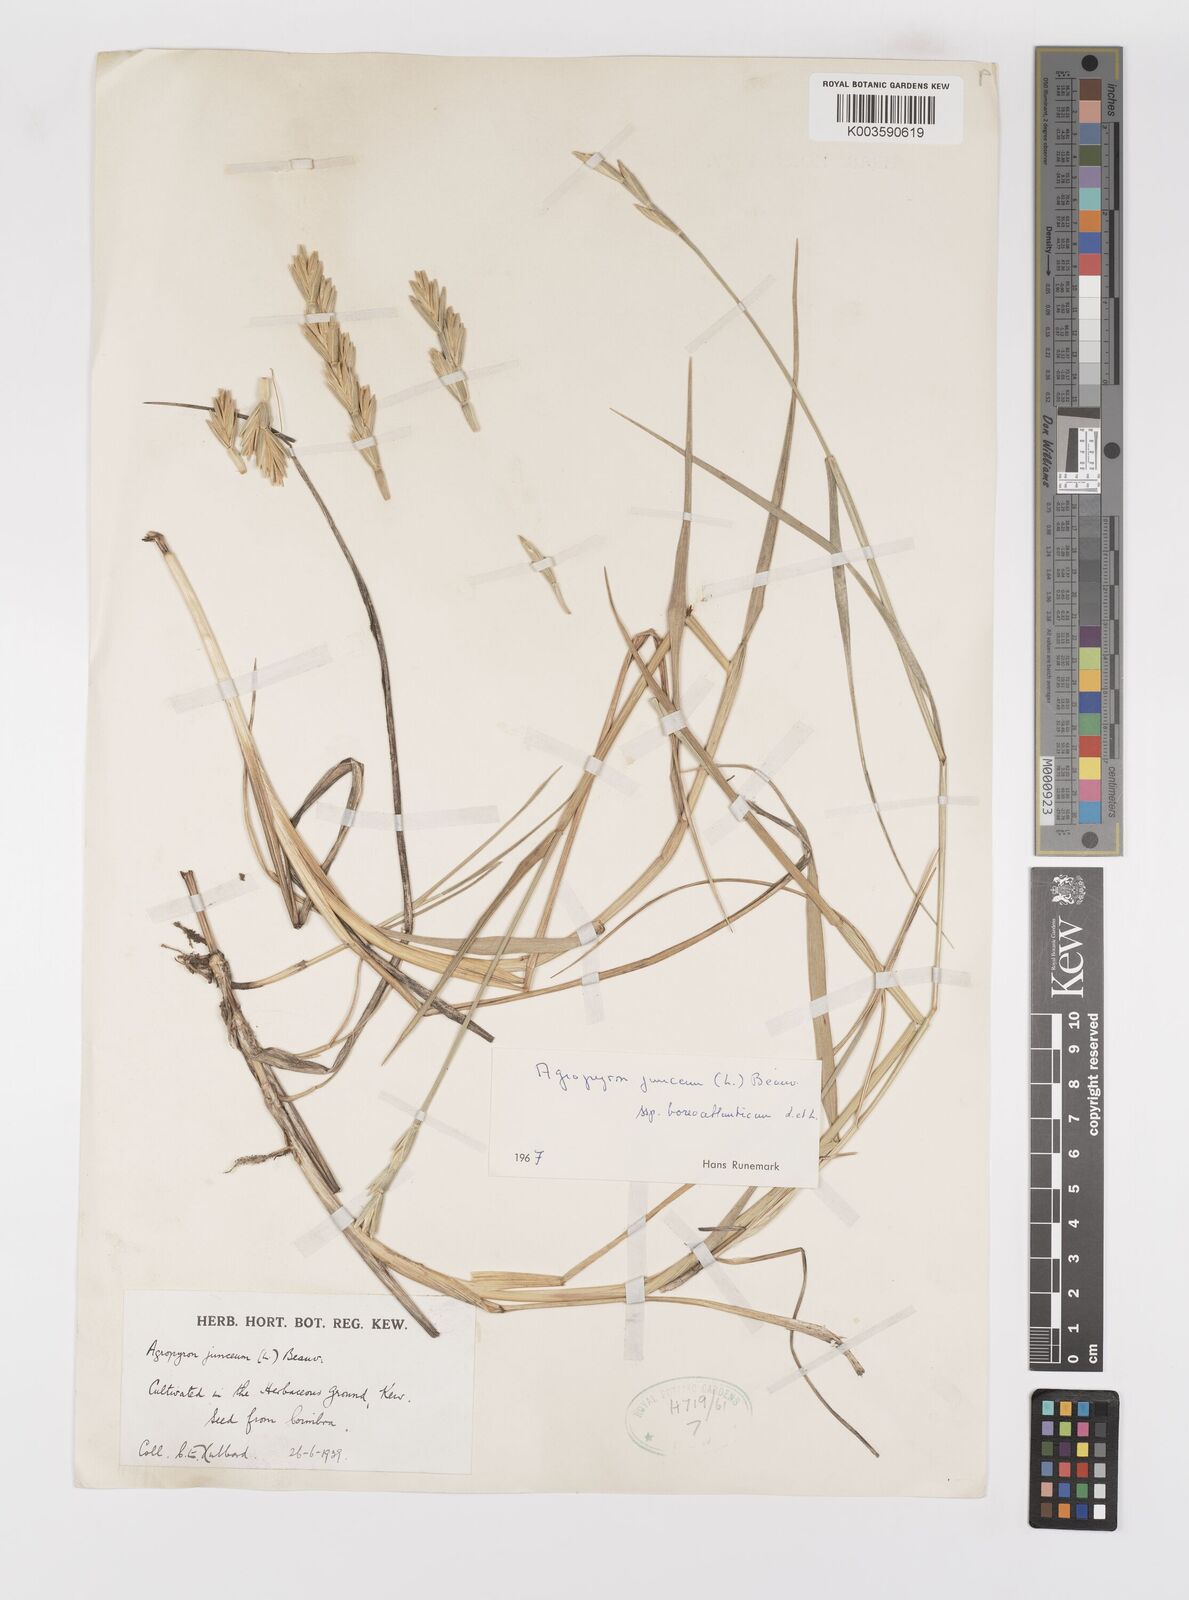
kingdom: Plantae
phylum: Tracheophyta
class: Liliopsida
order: Poales
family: Poaceae
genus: Thinopyrum
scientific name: Thinopyrum junceum
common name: Russian wheatgrass
